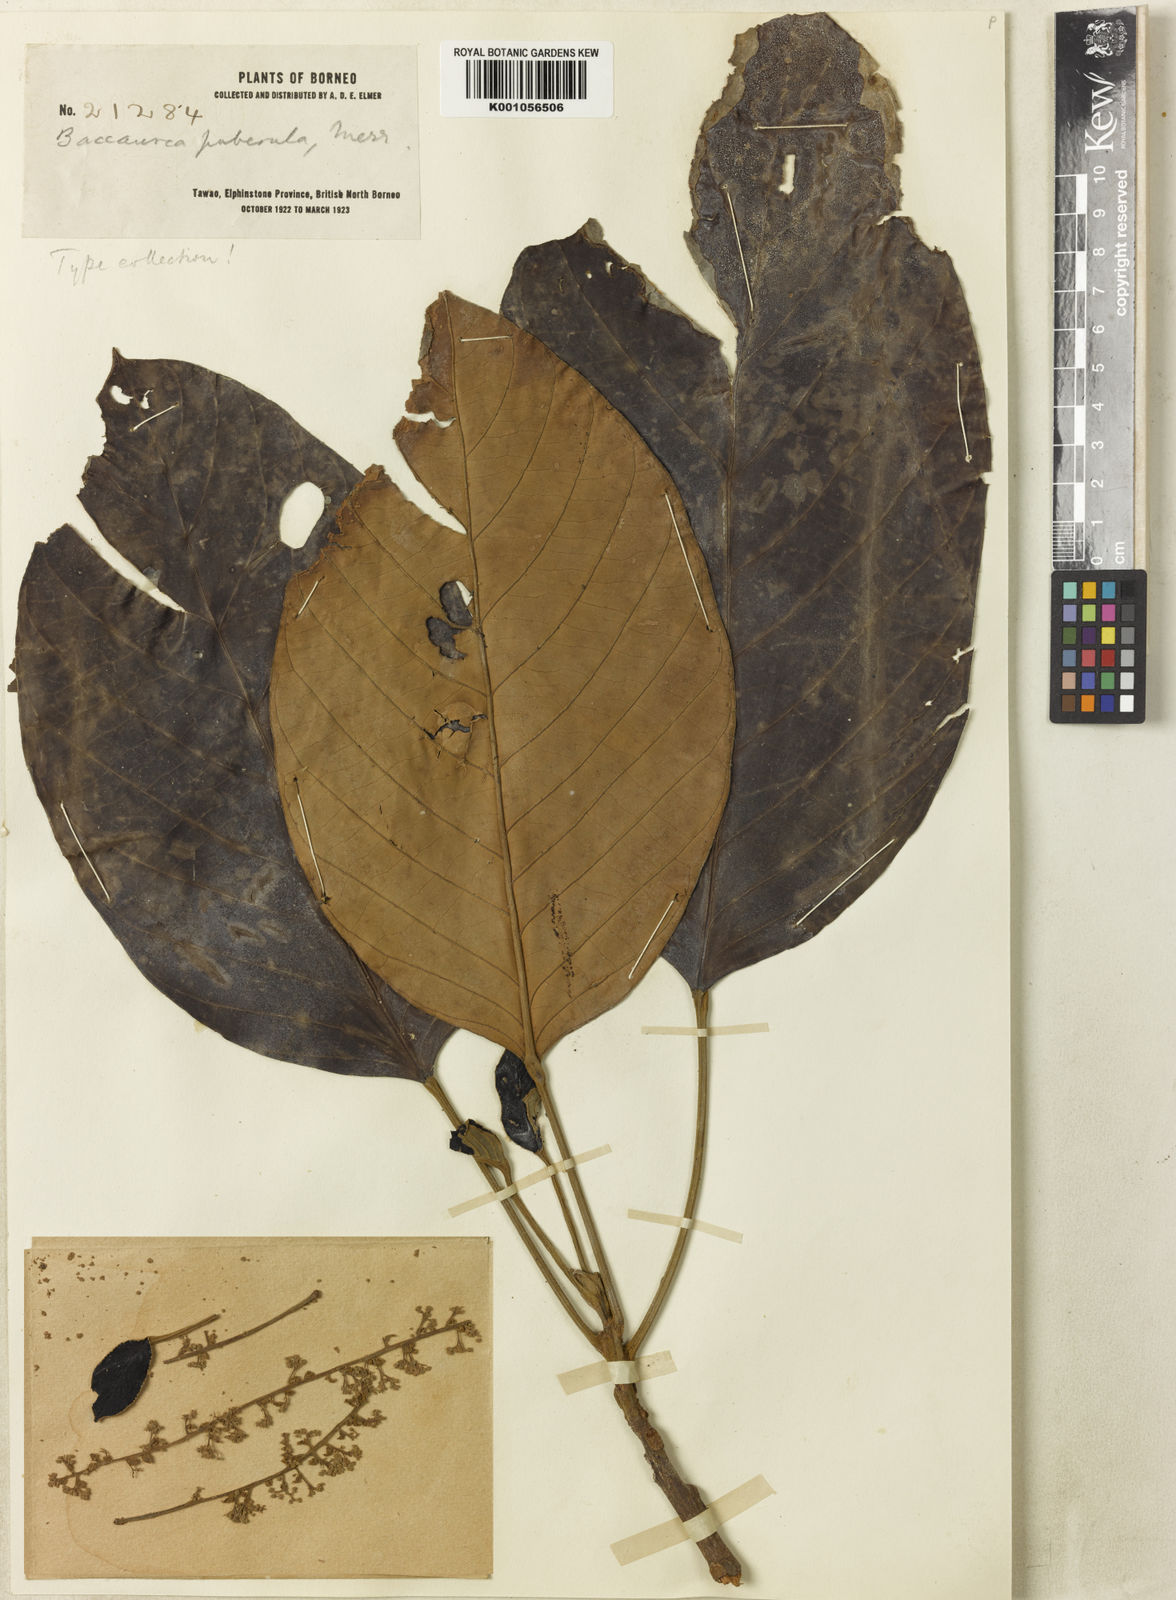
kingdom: Plantae
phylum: Tracheophyta
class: Magnoliopsida
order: Malpighiales
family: Phyllanthaceae
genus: Baccaurea
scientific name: Baccaurea pubera
